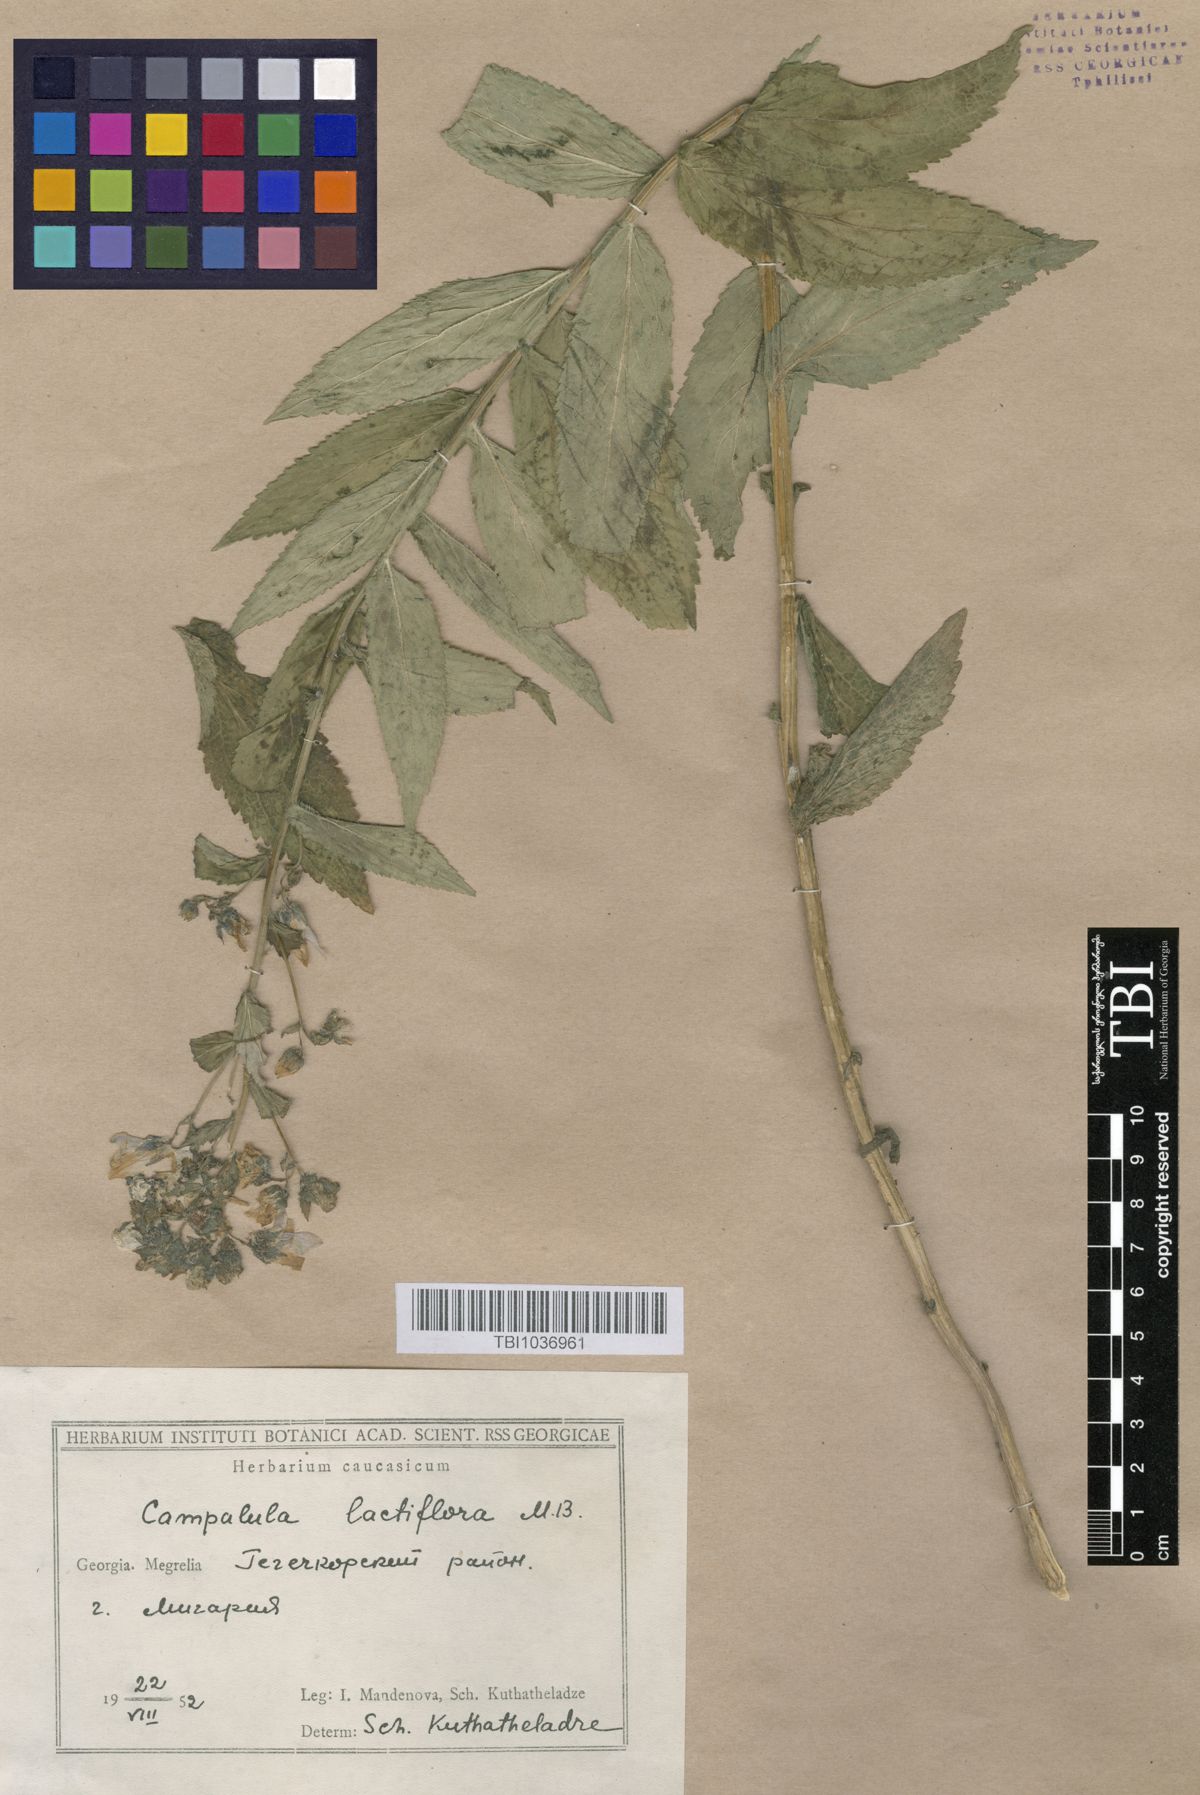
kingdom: Plantae
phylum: Tracheophyta
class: Magnoliopsida
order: Asterales
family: Campanulaceae
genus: Campanula
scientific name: Campanula lactiflora
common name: Milky bellflower
